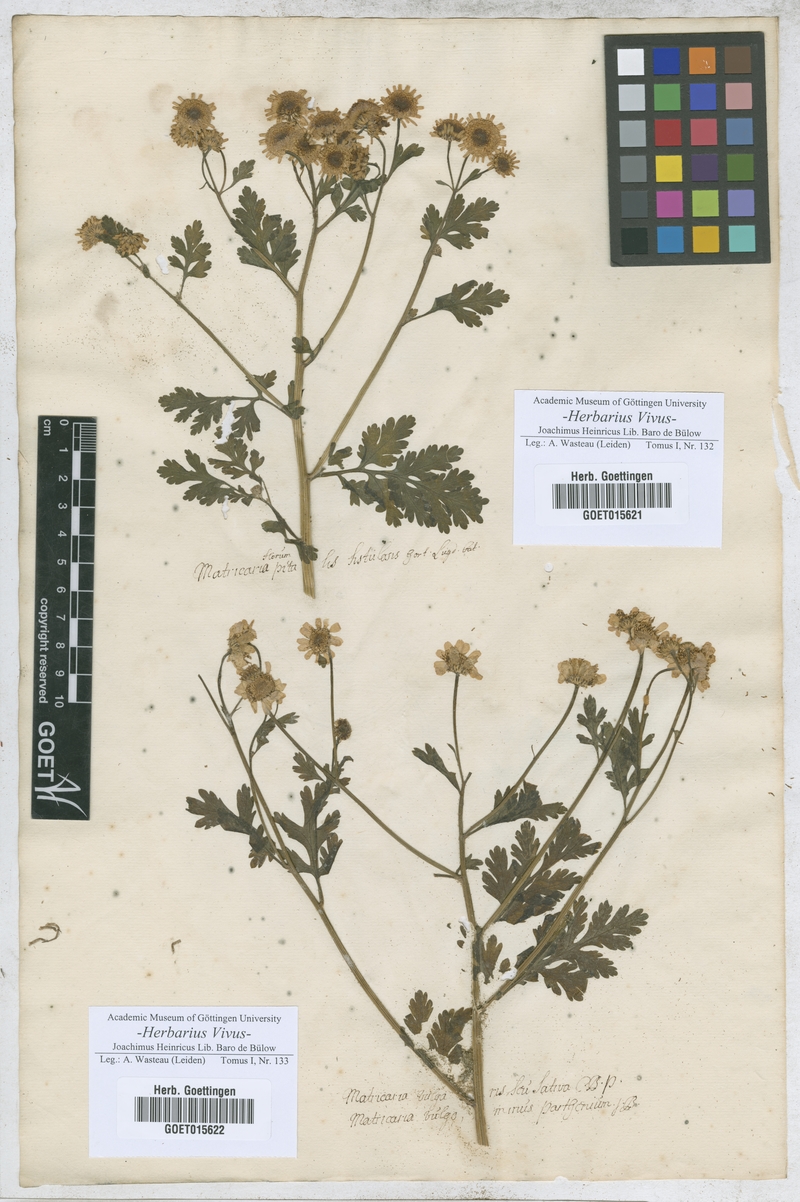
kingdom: Plantae
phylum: Tracheophyta
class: Magnoliopsida
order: Asterales
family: Asteraceae
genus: Matricaria
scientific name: Matricaria
